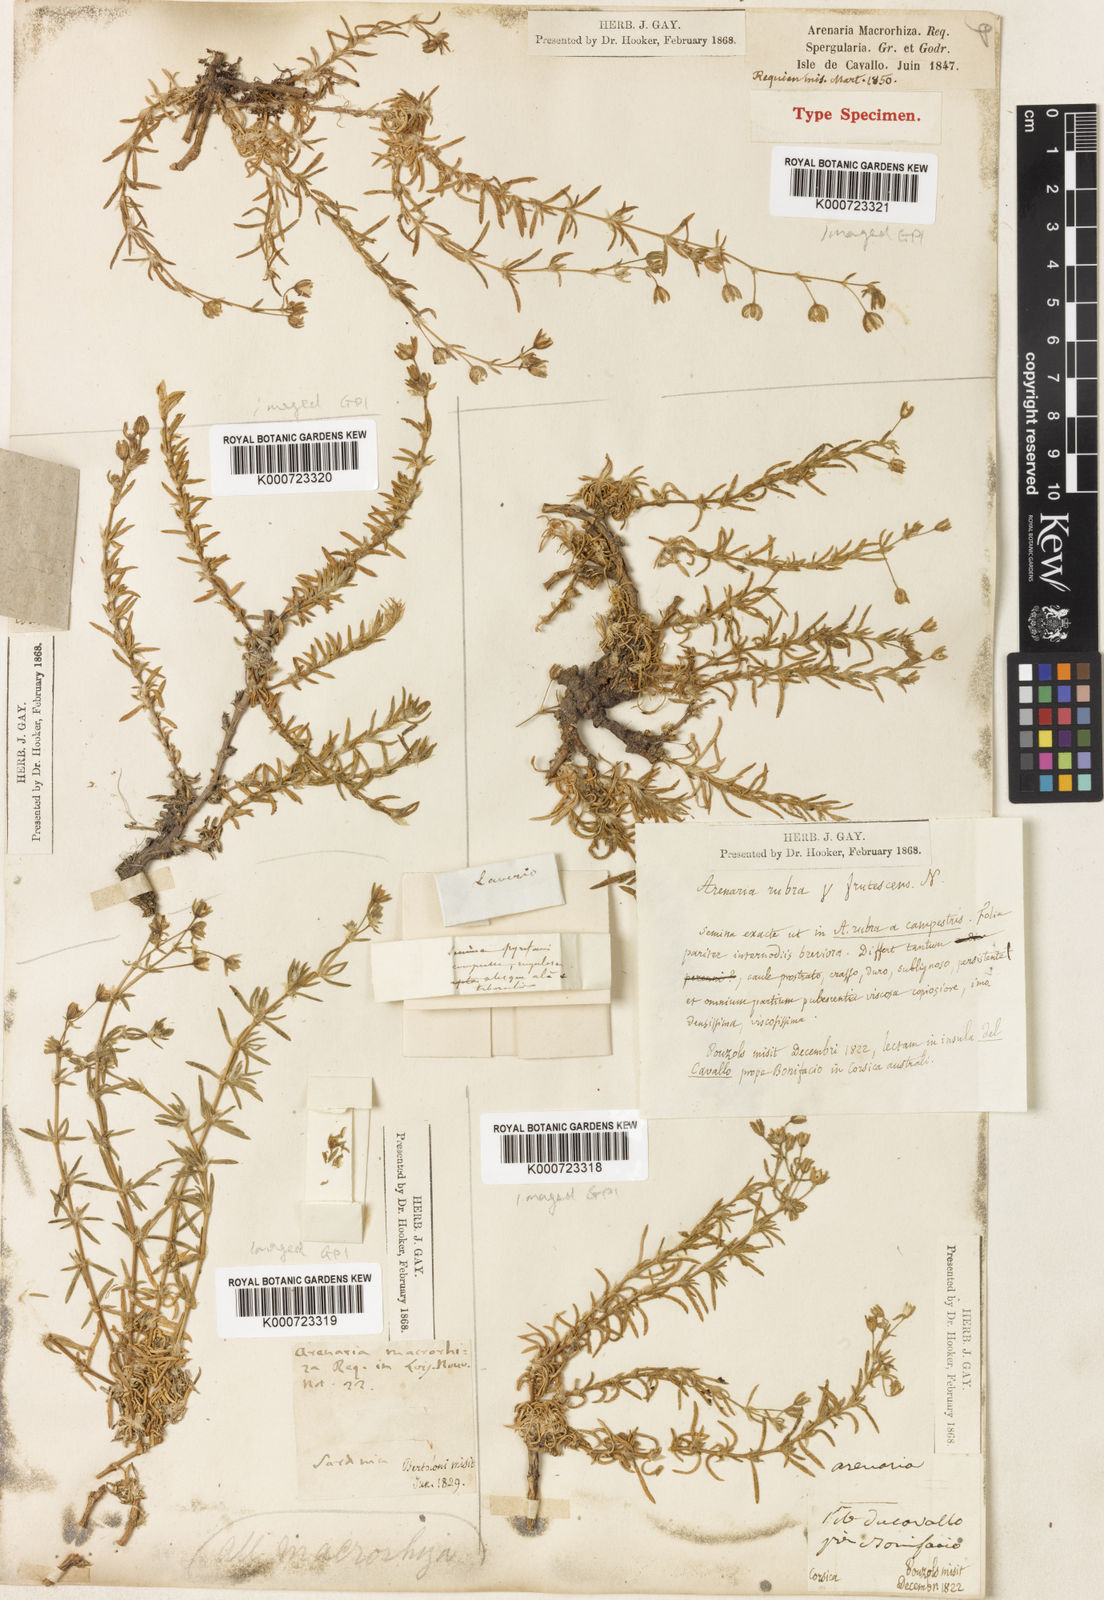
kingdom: Plantae
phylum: Tracheophyta
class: Magnoliopsida
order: Caryophyllales
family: Caryophyllaceae
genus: Spergularia
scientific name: Spergularia macrorrhiza
